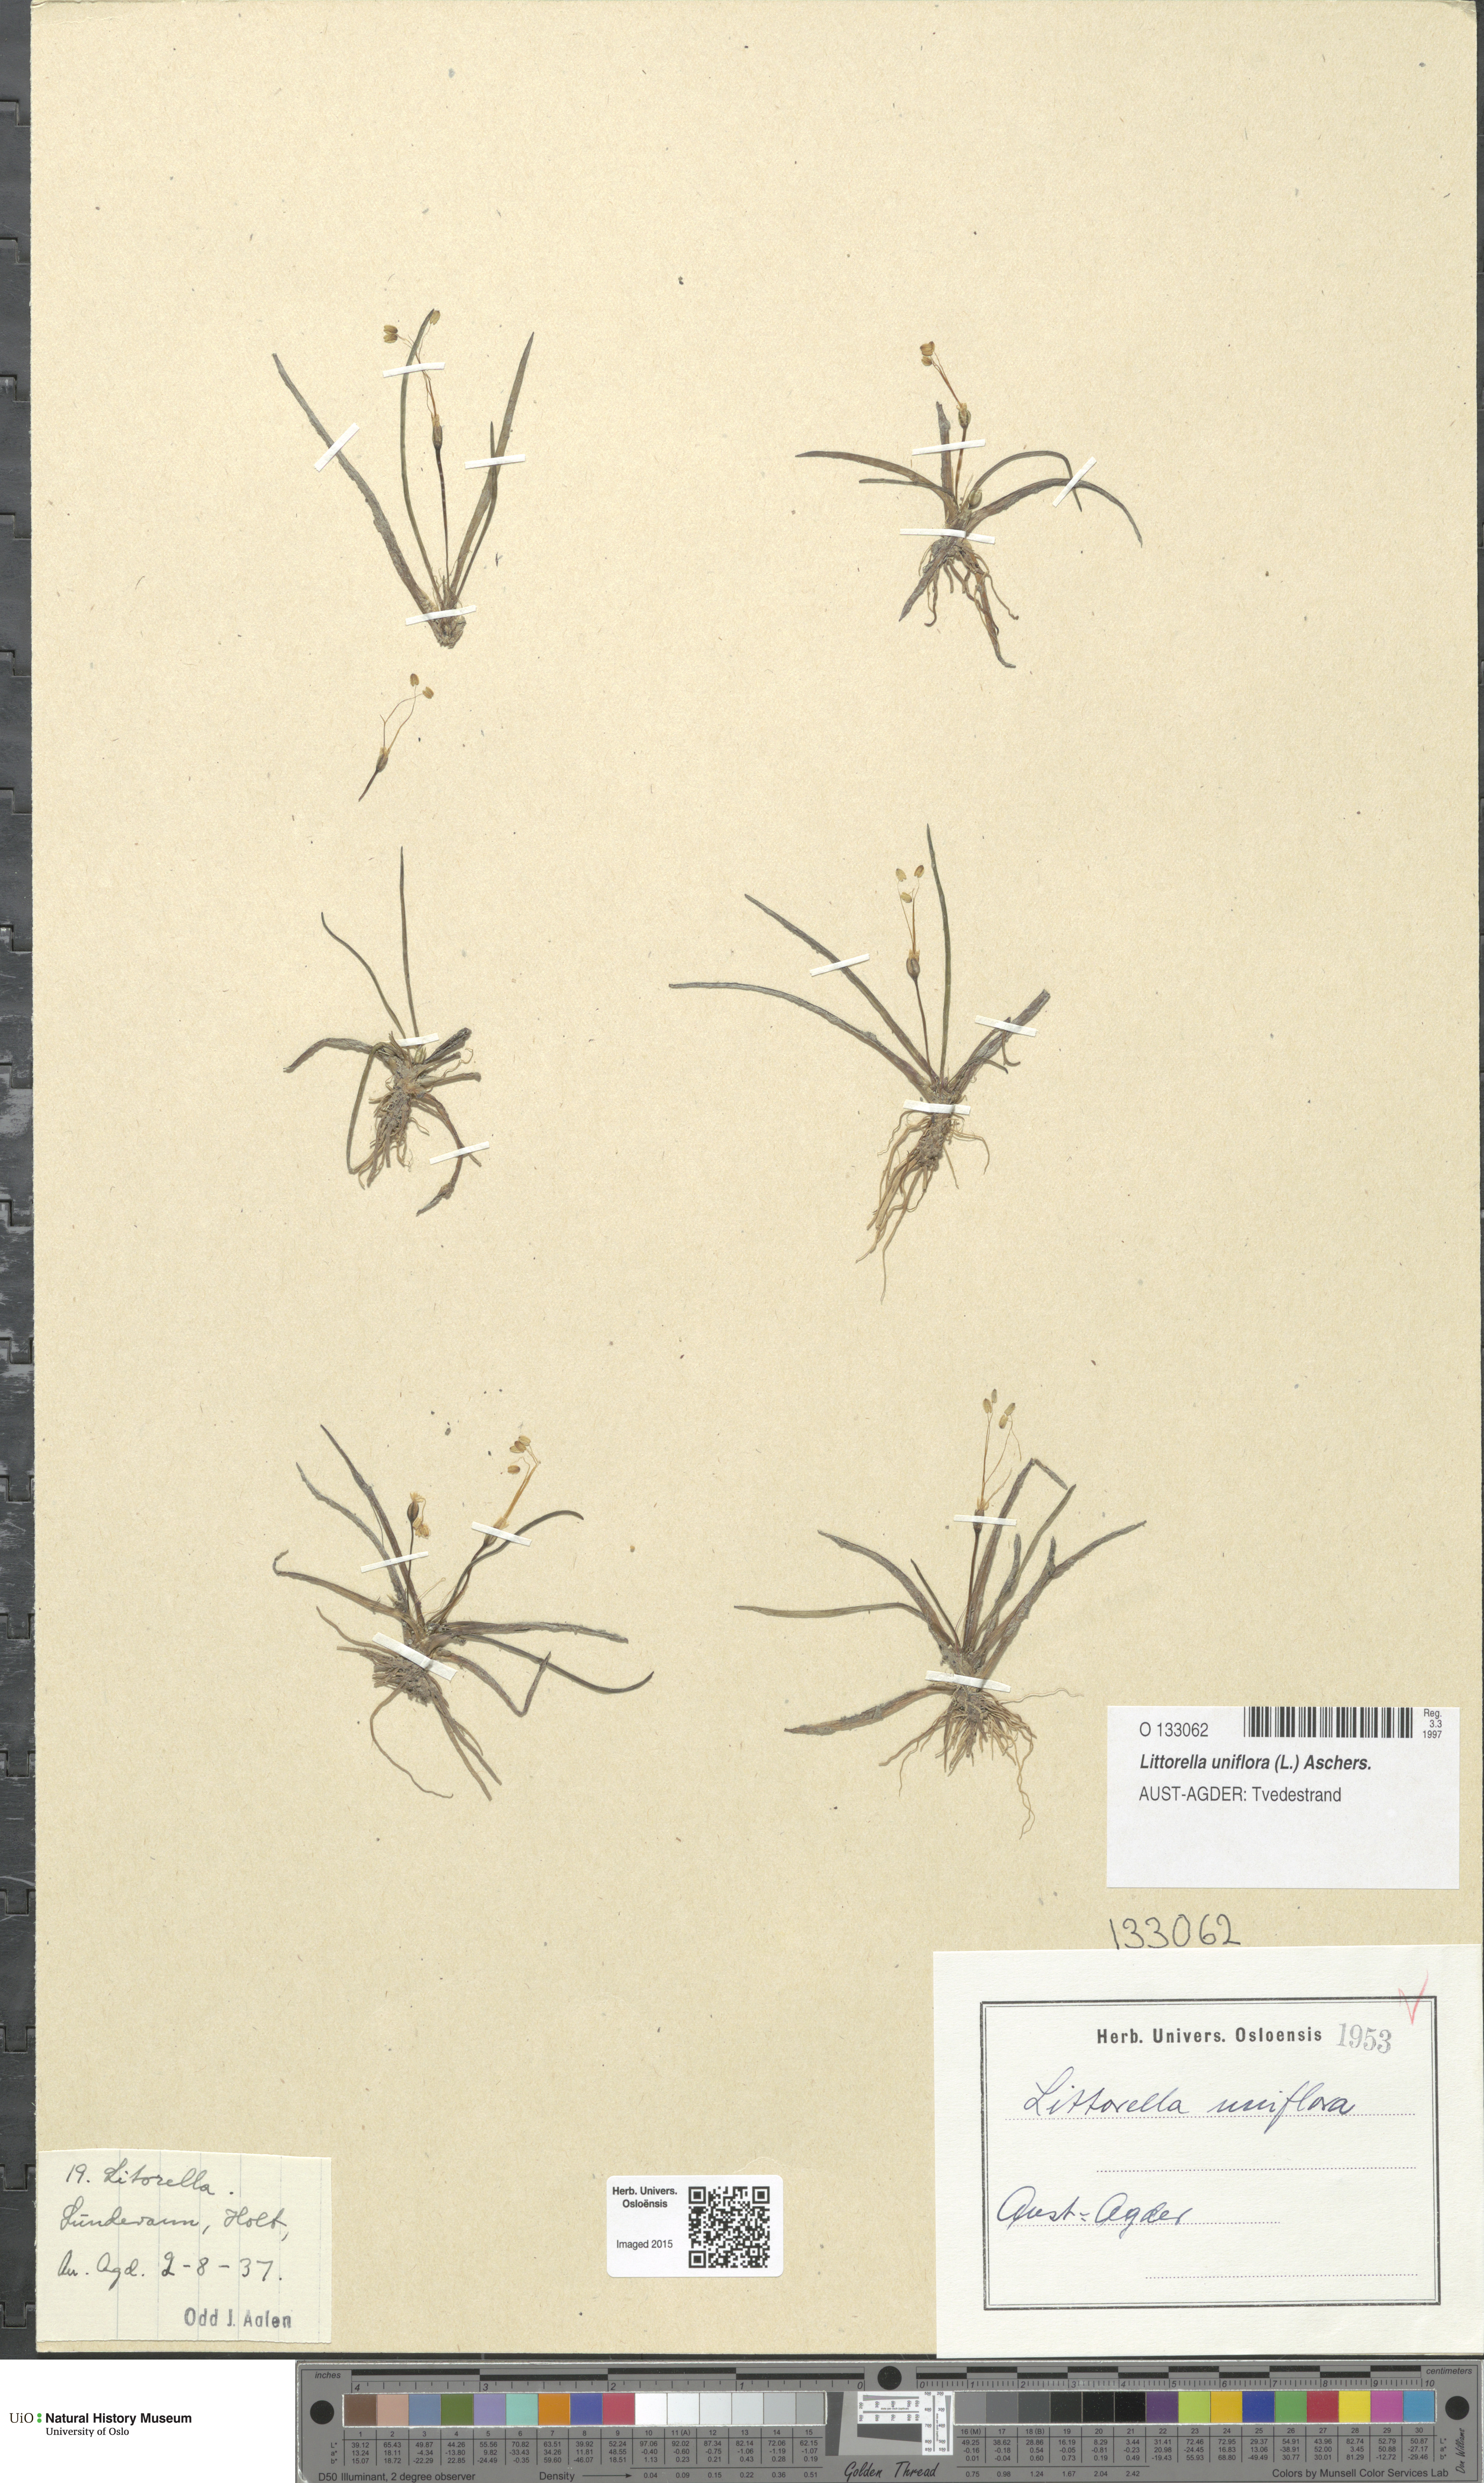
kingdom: Plantae
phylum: Tracheophyta
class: Magnoliopsida
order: Lamiales
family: Plantaginaceae
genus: Littorella
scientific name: Littorella uniflora
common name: Shoreweed
